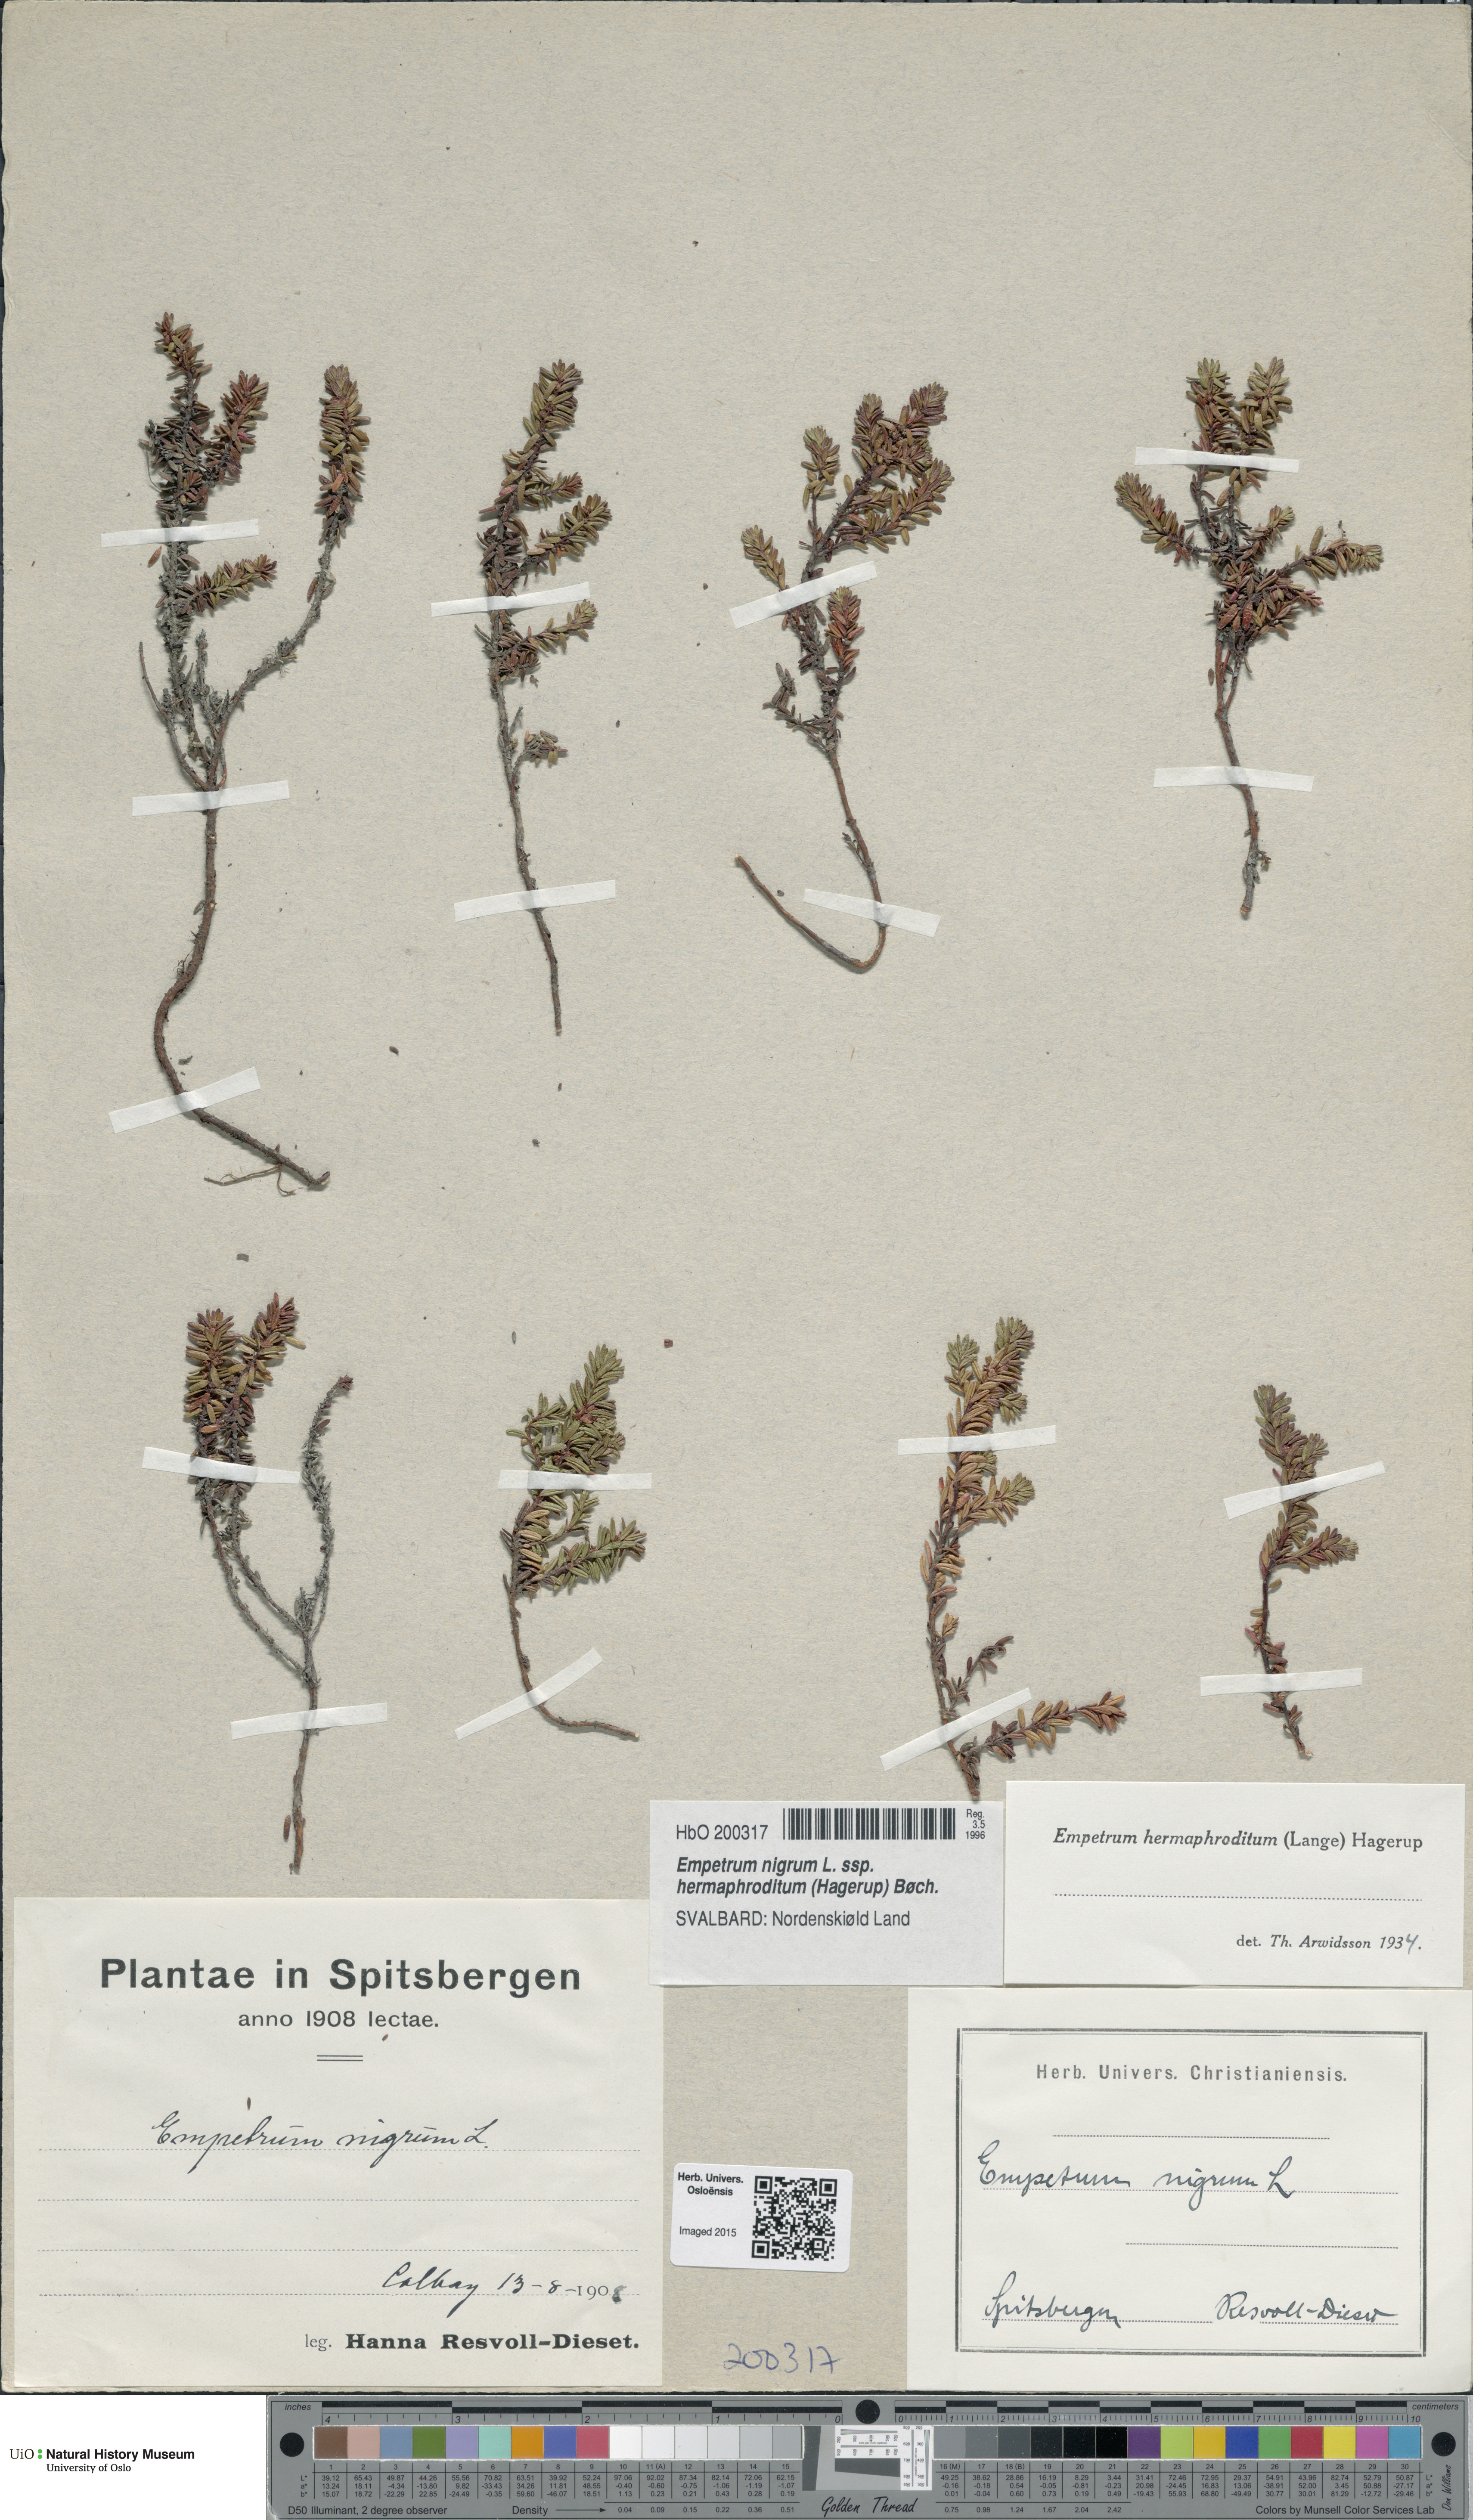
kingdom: Plantae
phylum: Tracheophyta
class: Magnoliopsida
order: Ericales
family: Ericaceae
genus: Empetrum
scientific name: Empetrum hermaphroditum
